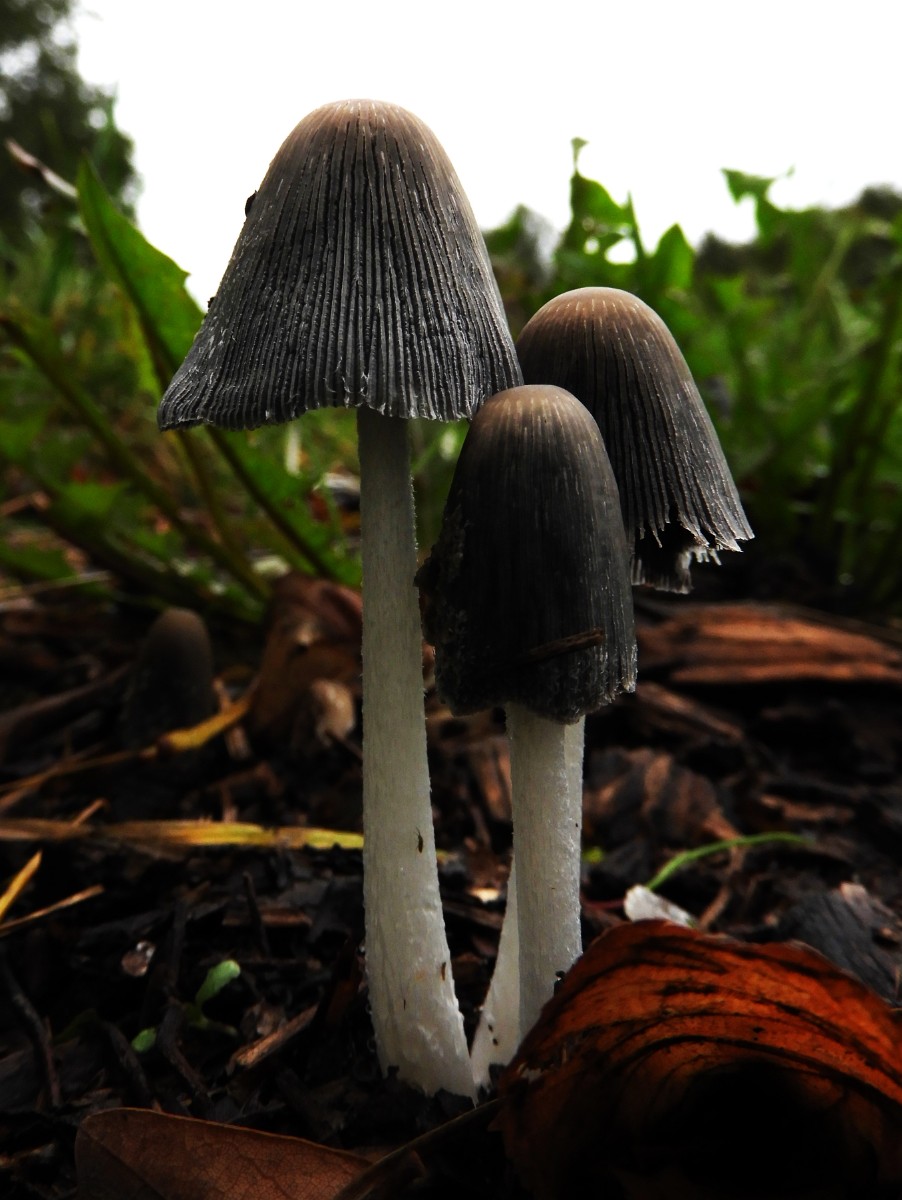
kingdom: Fungi
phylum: Basidiomycota
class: Agaricomycetes
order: Agaricales
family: Psathyrellaceae
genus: Coprinopsis
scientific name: Coprinopsis lagopus
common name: dunstokket blækhat
